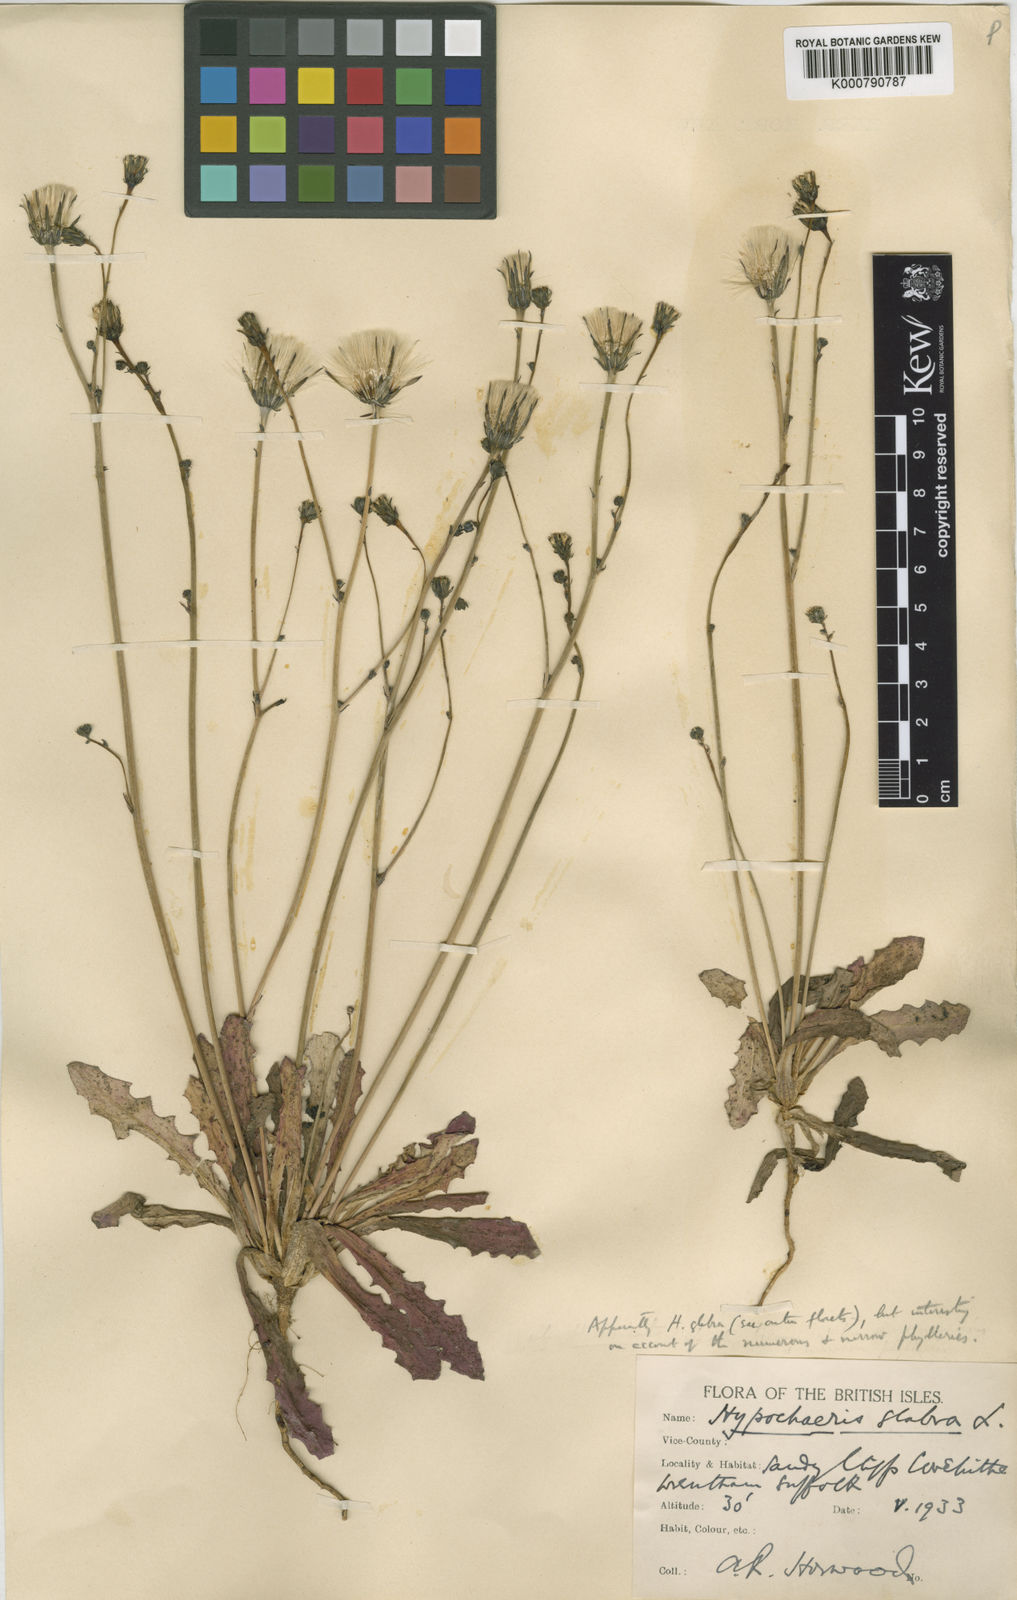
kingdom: Plantae
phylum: Tracheophyta
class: Magnoliopsida
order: Asterales
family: Asteraceae
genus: Hypochaeris
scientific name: Hypochaeris glabra
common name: Smooth catsear
